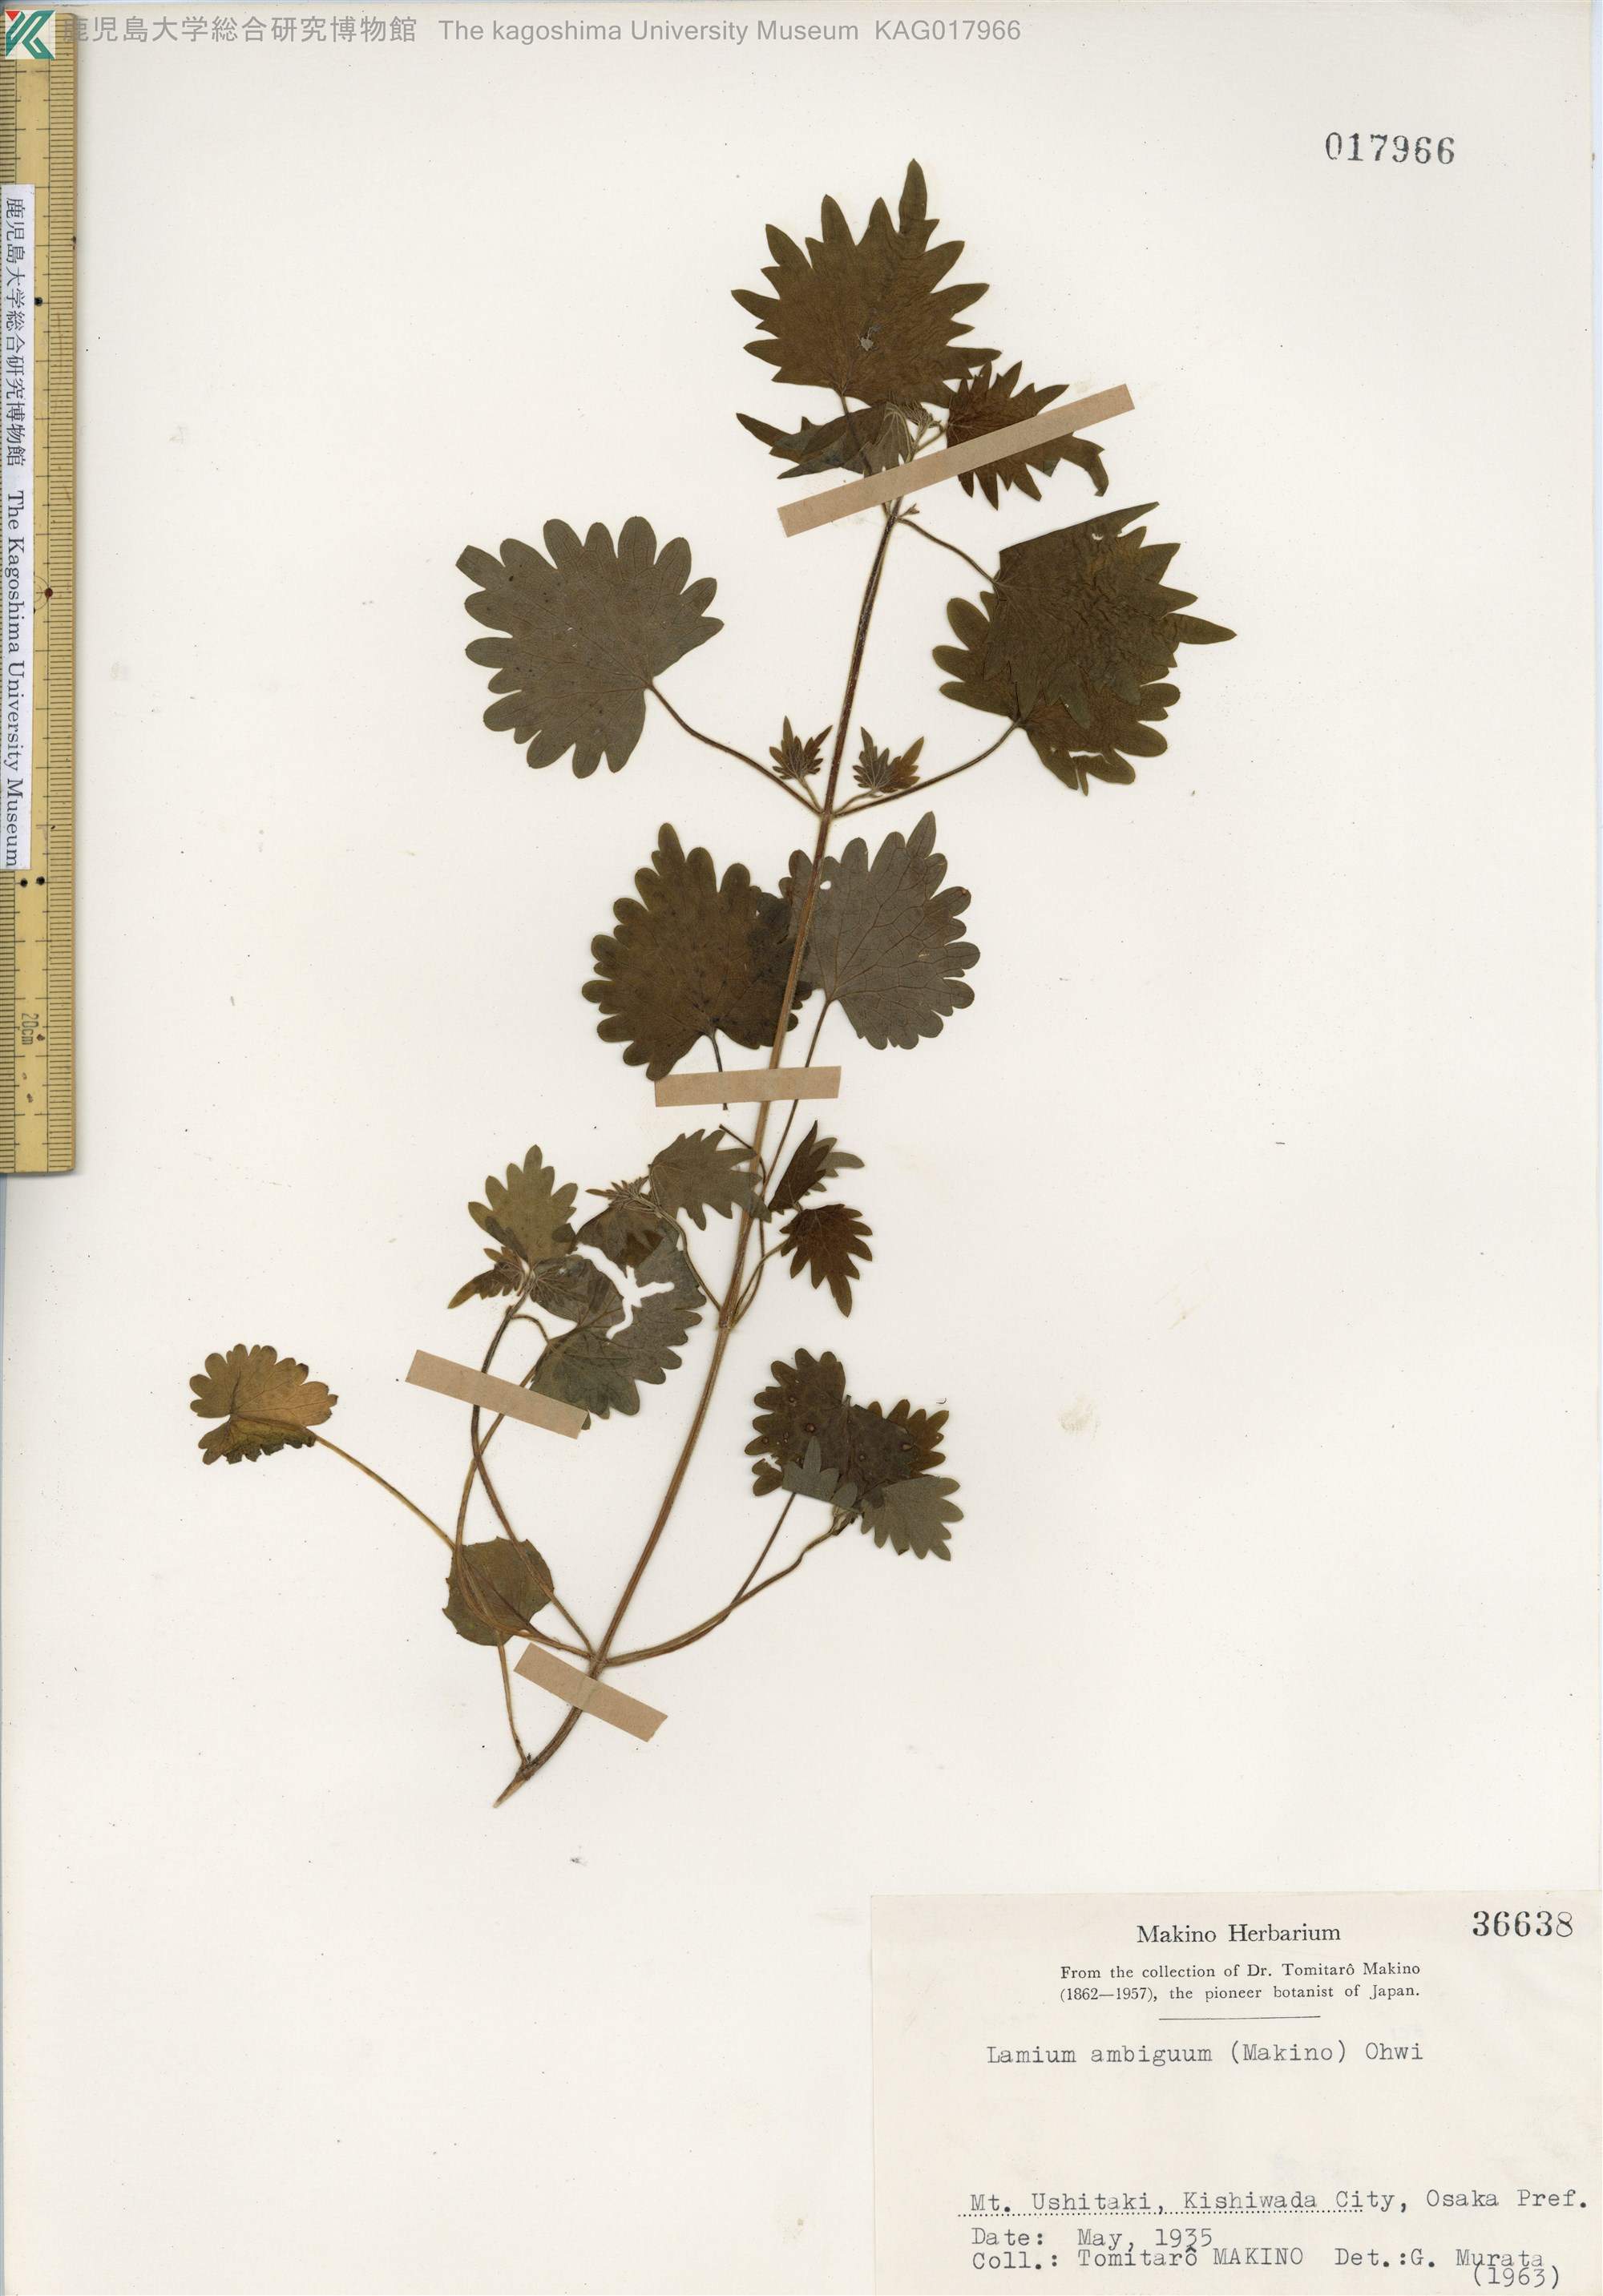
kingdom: Plantae
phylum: Tracheophyta
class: Magnoliopsida
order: Lamiales
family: Lamiaceae
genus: Loxocalyx
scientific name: Loxocalyx ambiguus
